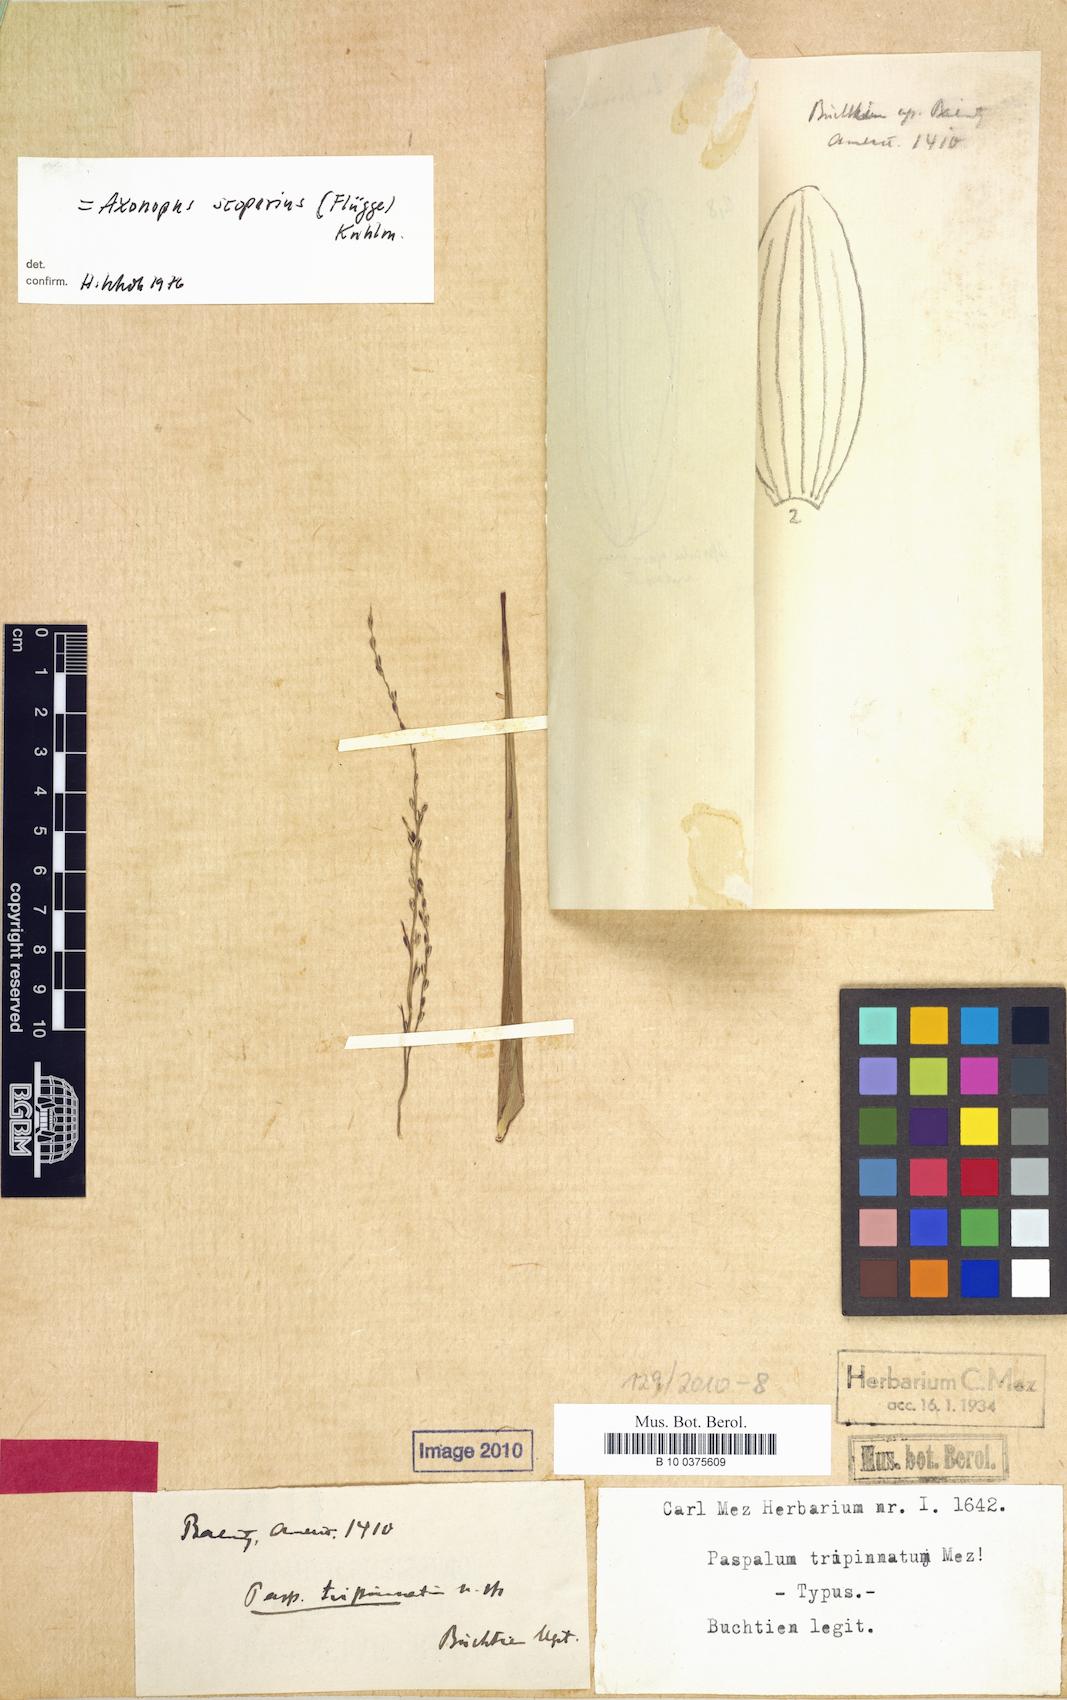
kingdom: Plantae
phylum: Tracheophyta
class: Liliopsida
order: Poales
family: Poaceae
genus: Axonopus
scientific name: Axonopus scoparius
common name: Imperial grass
